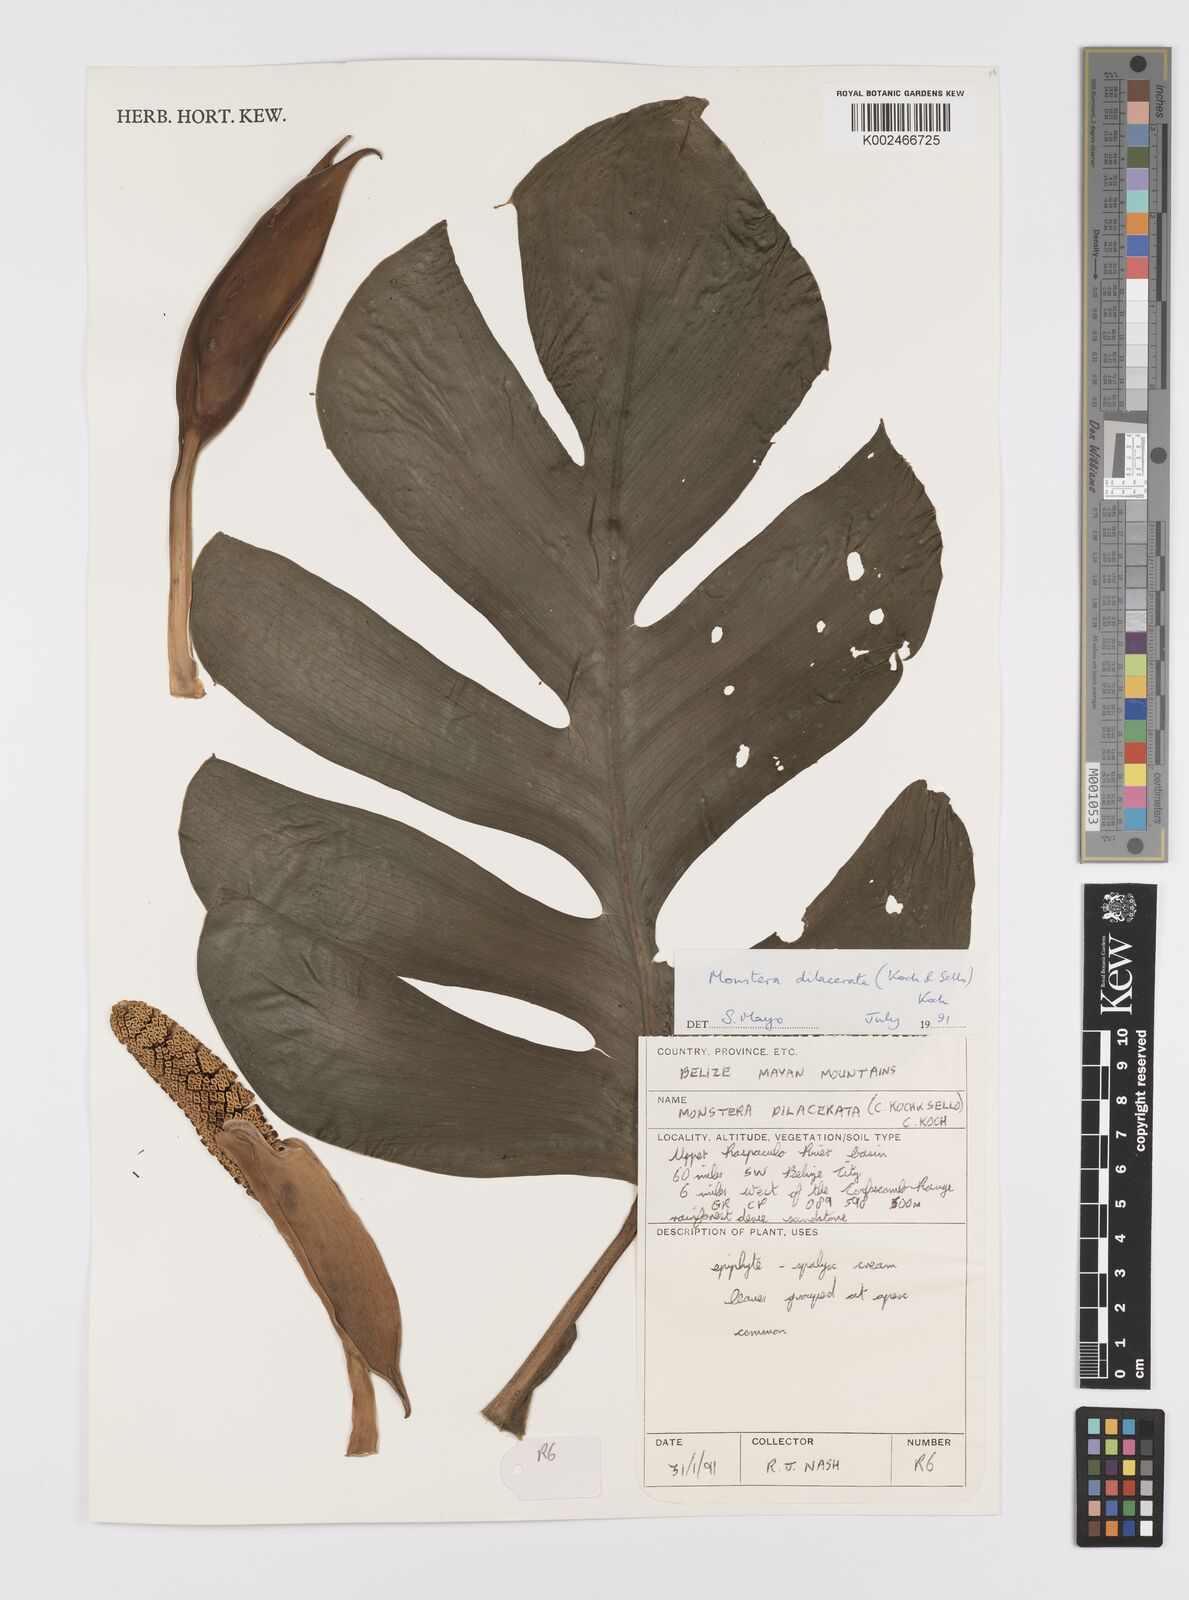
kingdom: Plantae
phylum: Tracheophyta
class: Liliopsida
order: Alismatales
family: Araceae
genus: Monstera
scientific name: Monstera dissecta
